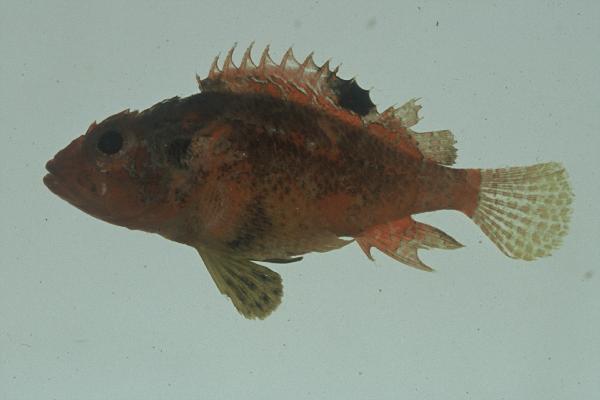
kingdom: Animalia
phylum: Chordata
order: Scorpaeniformes
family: Scorpaenidae
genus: Scorpaenodes
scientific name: Scorpaenodes varipinnis
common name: Blotchfin scorpionfish
